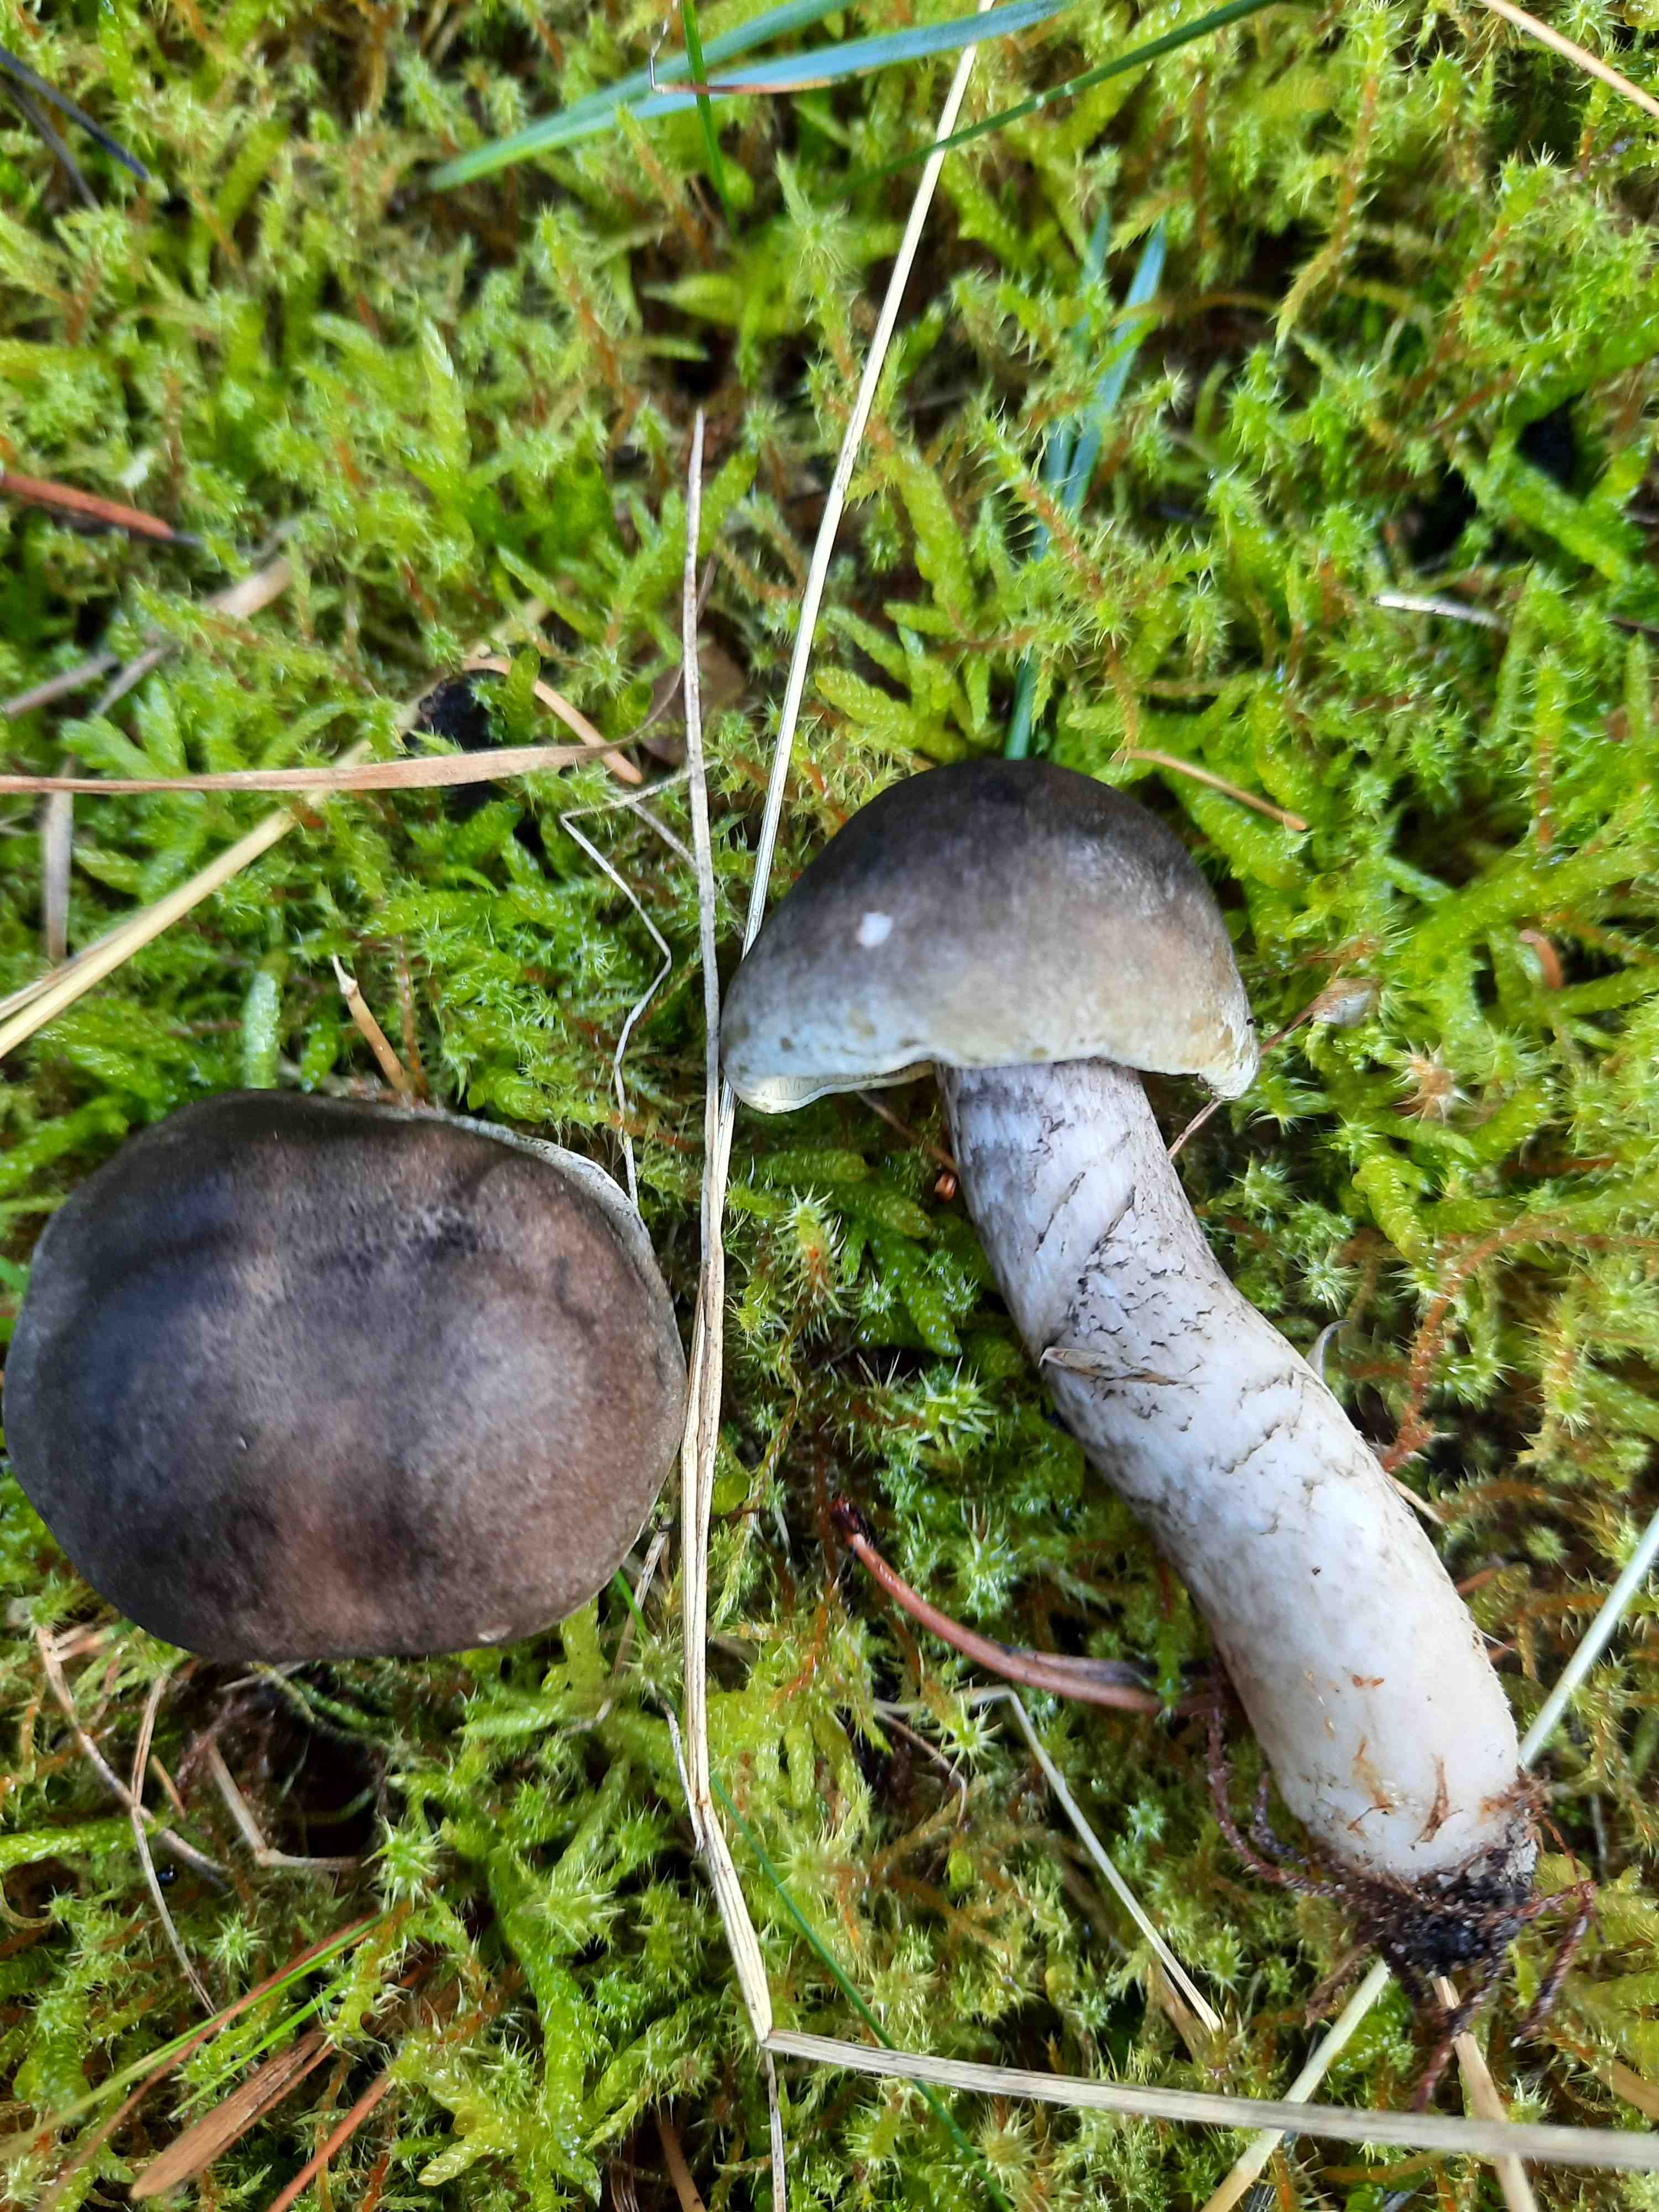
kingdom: Fungi
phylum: Basidiomycota
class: Agaricomycetes
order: Agaricales
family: Tricholomataceae
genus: Tricholoma
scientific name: Tricholoma saponaceum
